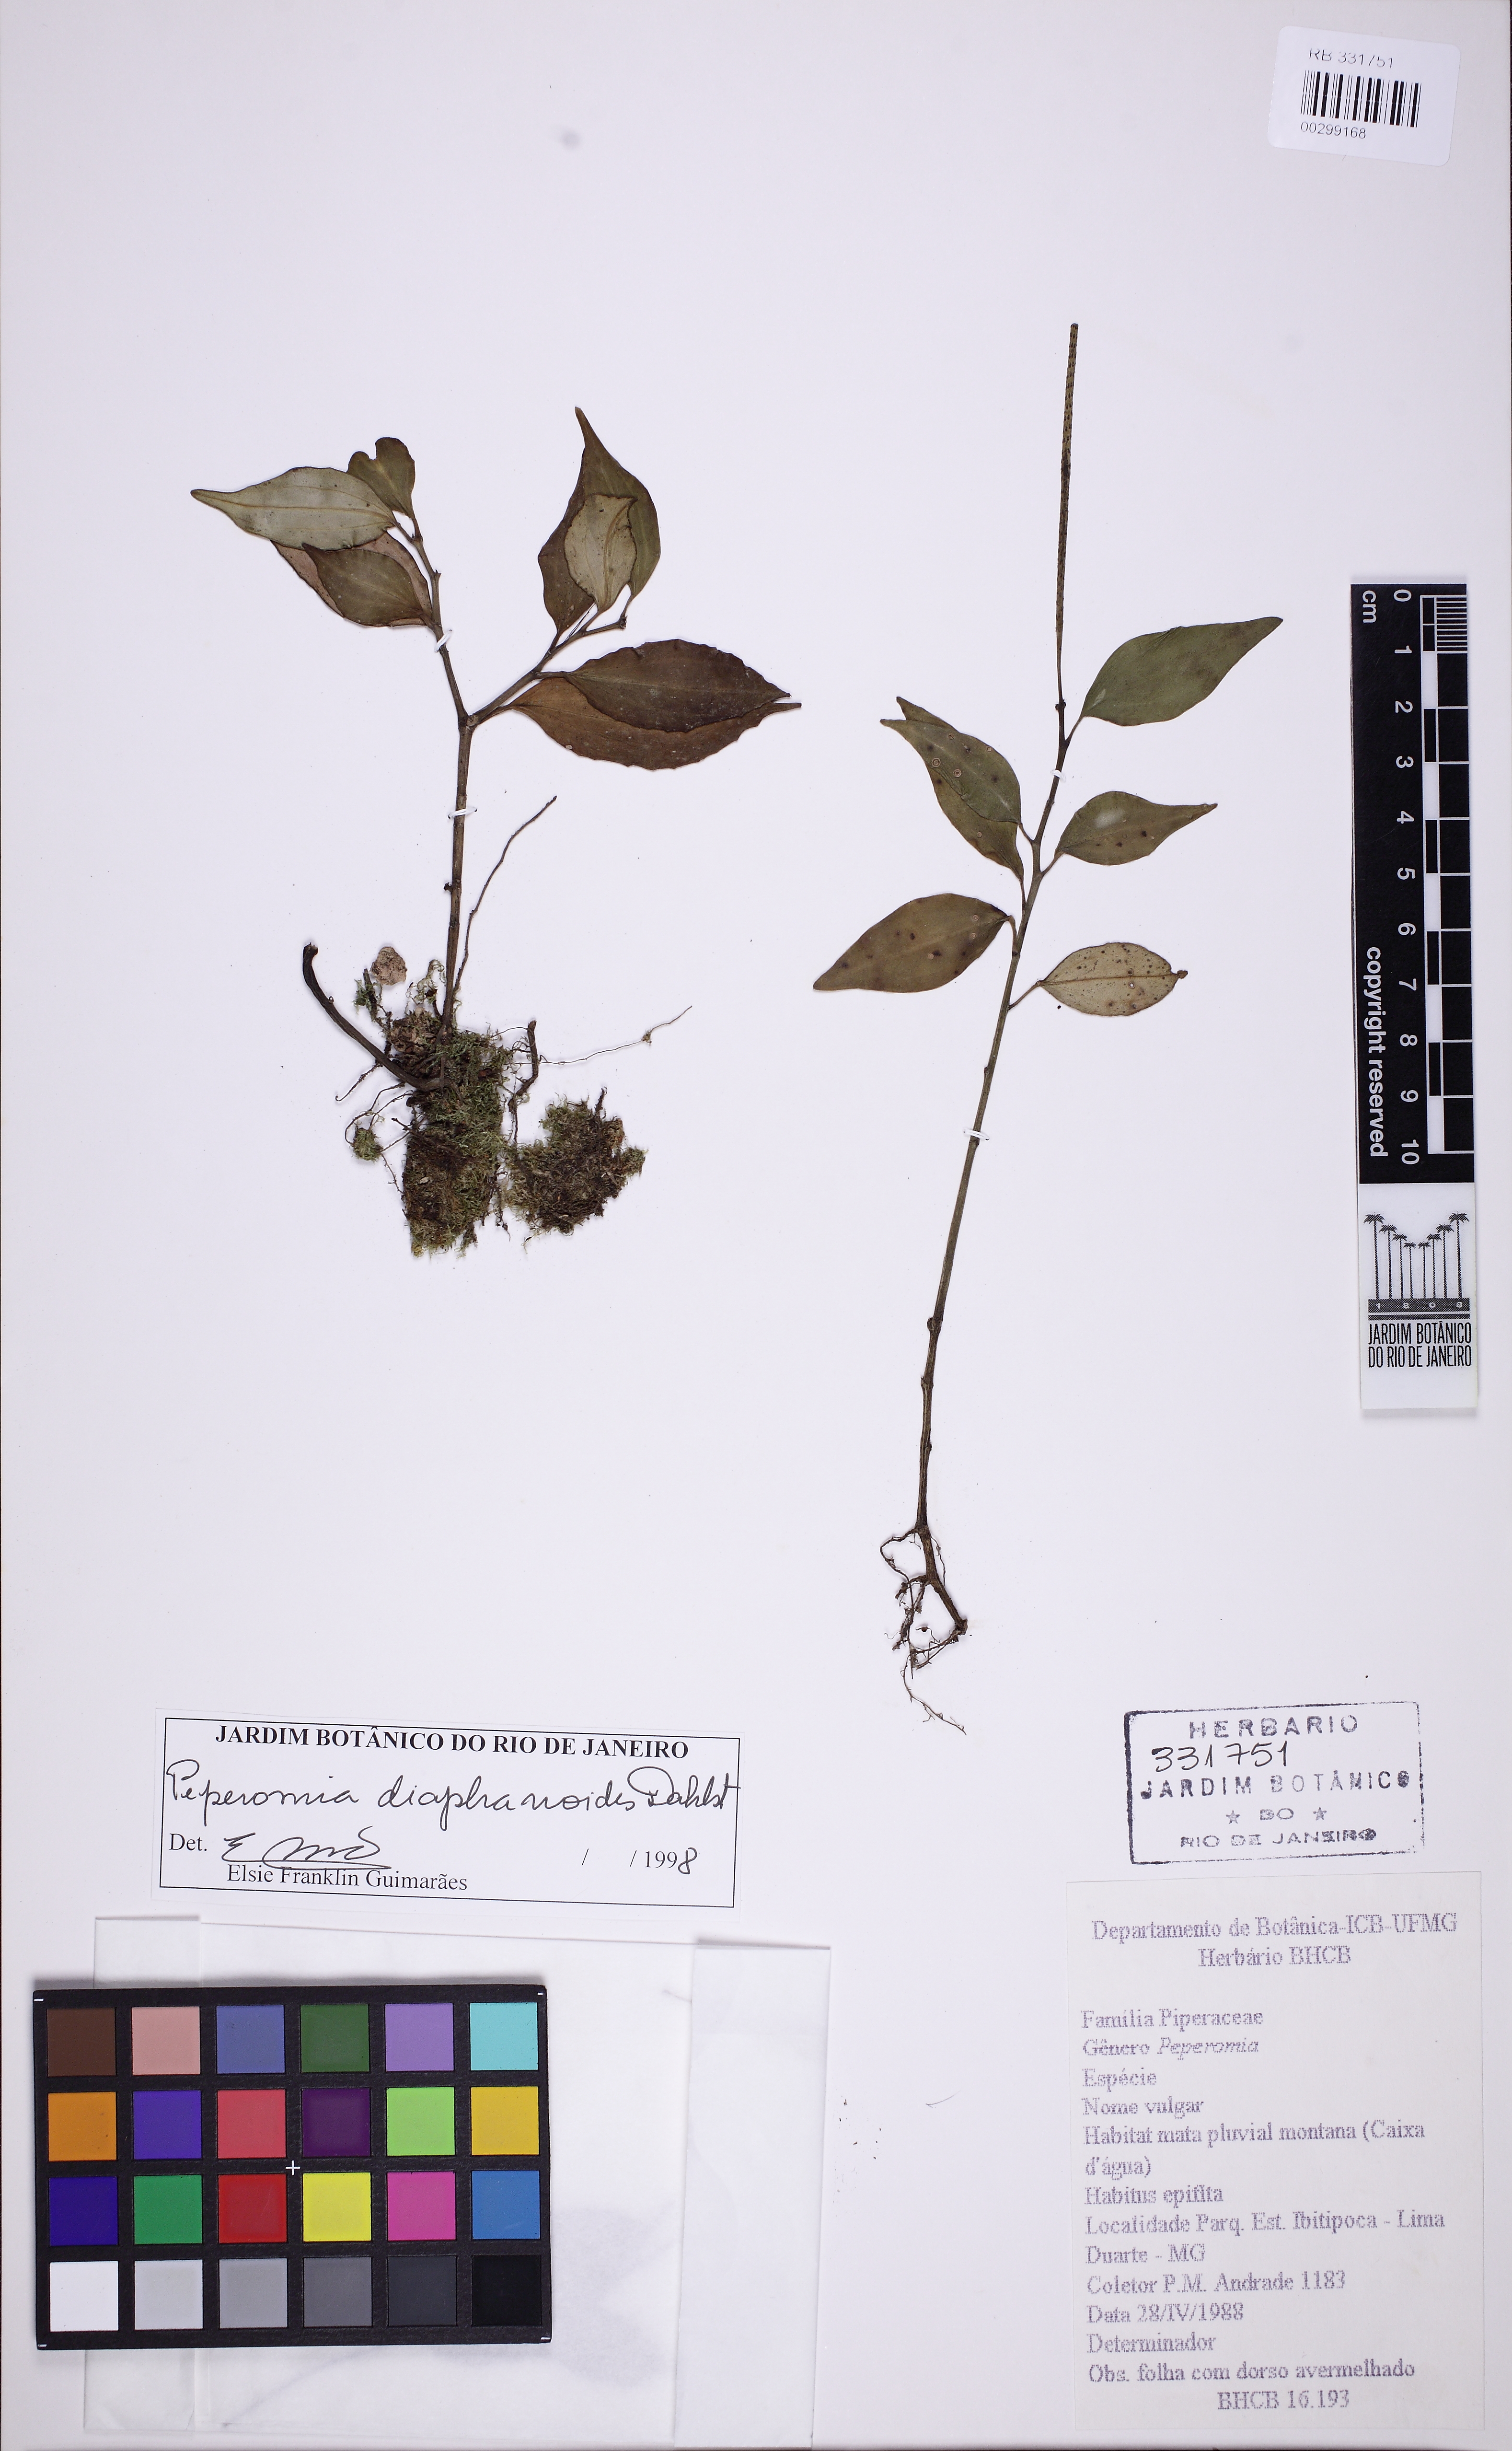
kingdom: Plantae
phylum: Tracheophyta
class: Magnoliopsida
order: Piperales
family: Piperaceae
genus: Peperomia
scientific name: Peperomia diaphanoides
